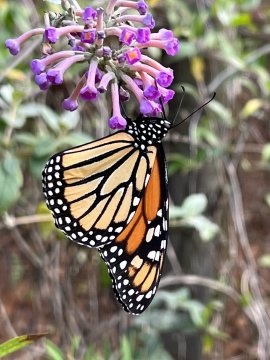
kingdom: Animalia
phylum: Arthropoda
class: Insecta
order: Lepidoptera
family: Nymphalidae
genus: Danaus
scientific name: Danaus plexippus
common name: Monarch
